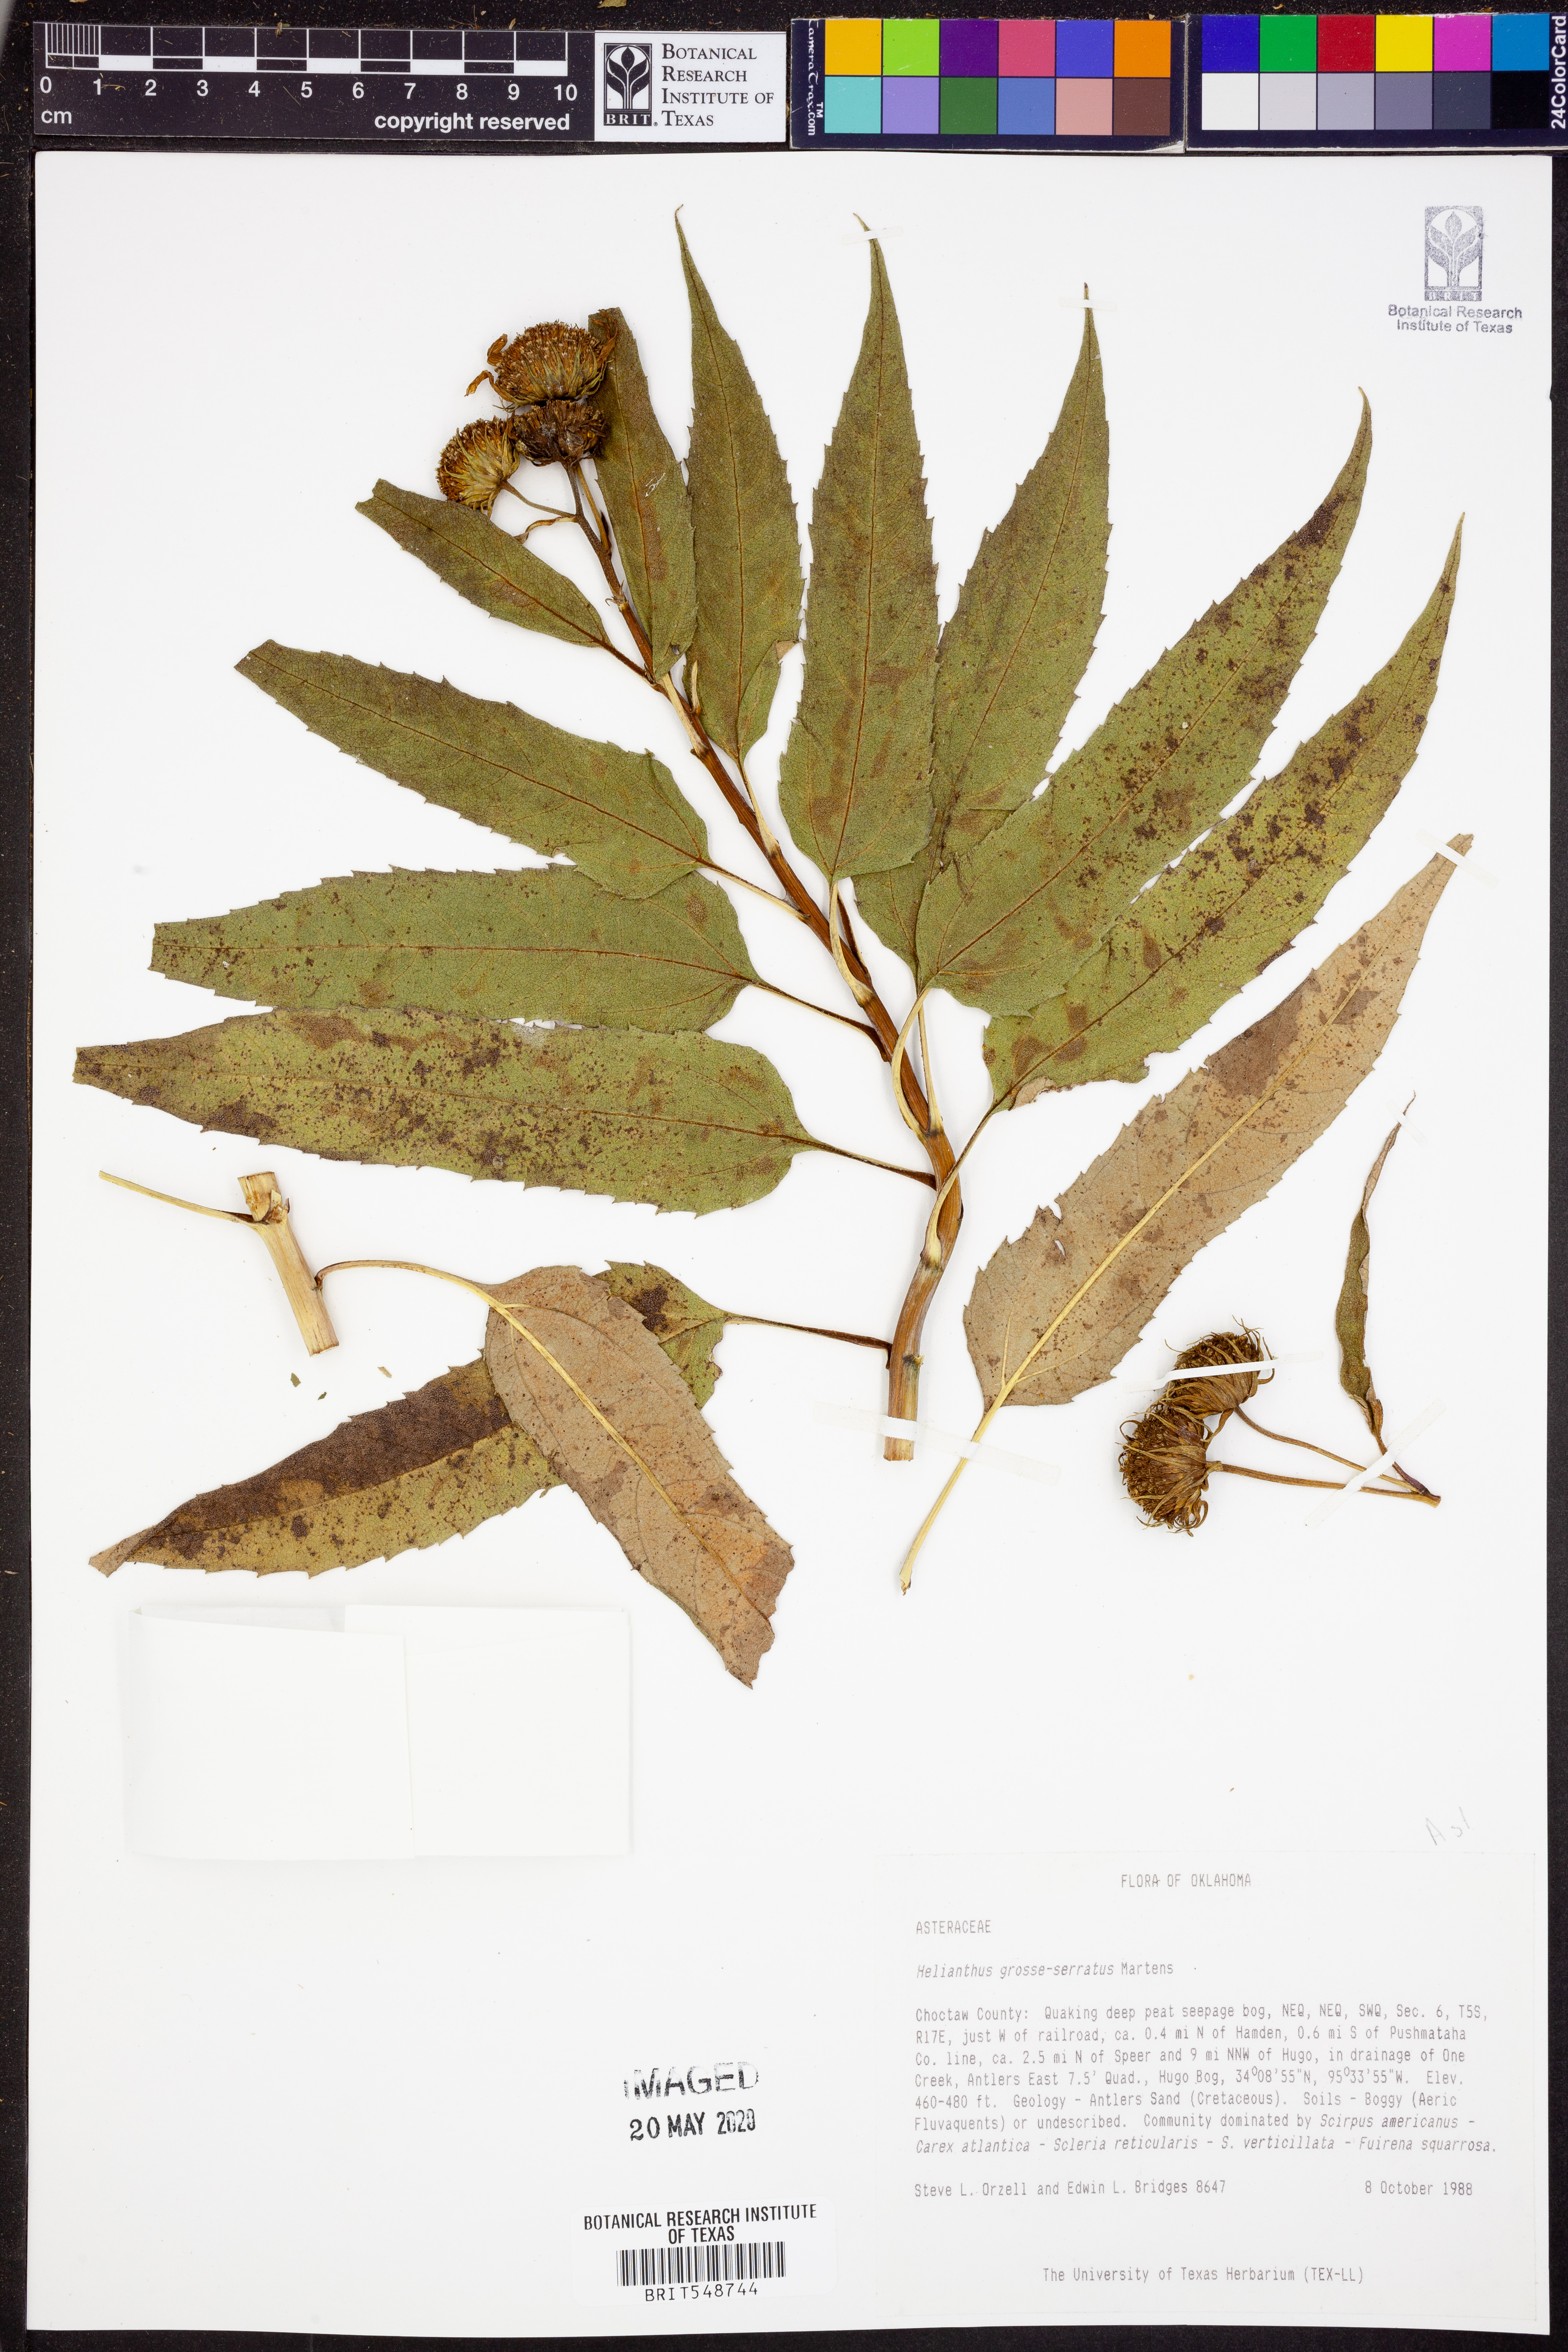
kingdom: Plantae
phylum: Tracheophyta
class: Magnoliopsida
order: Asterales
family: Asteraceae
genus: Helianthus
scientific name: Helianthus grosseserratus
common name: Sawtooth sunflower
